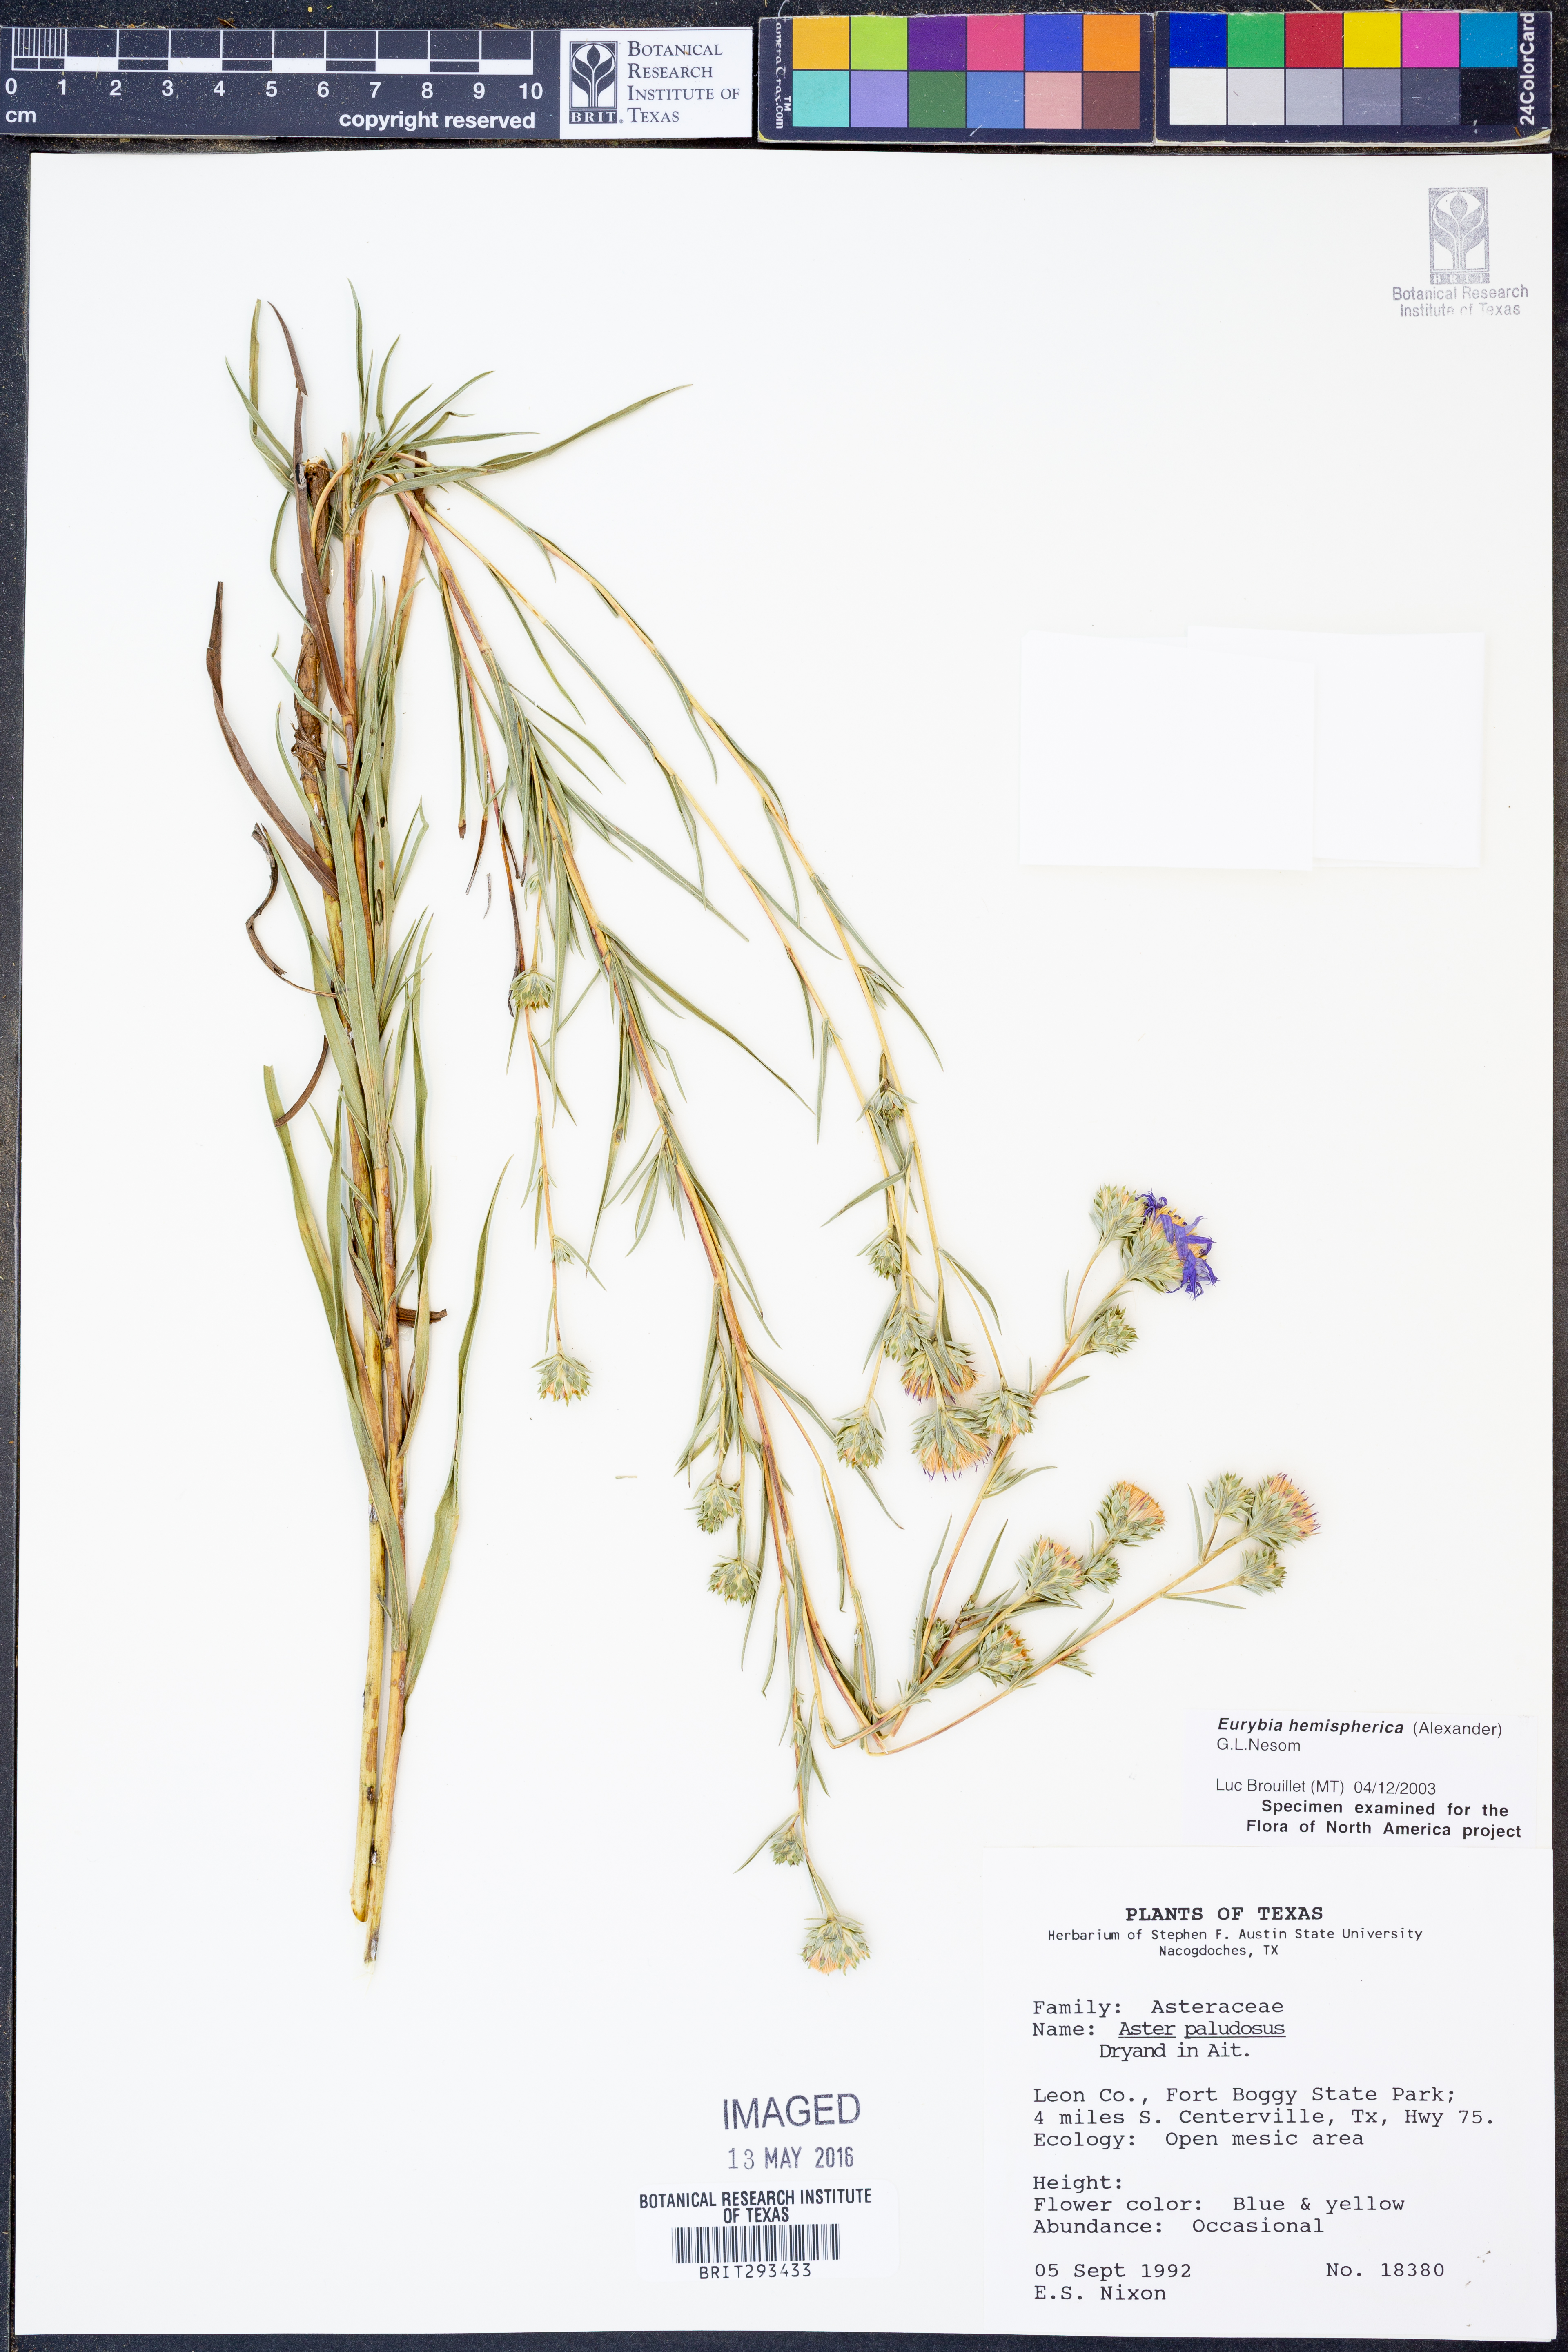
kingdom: Plantae
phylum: Tracheophyta
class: Magnoliopsida
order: Asterales
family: Asteraceae
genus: Eurybia
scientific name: Eurybia hemispherica
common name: Showy aster
